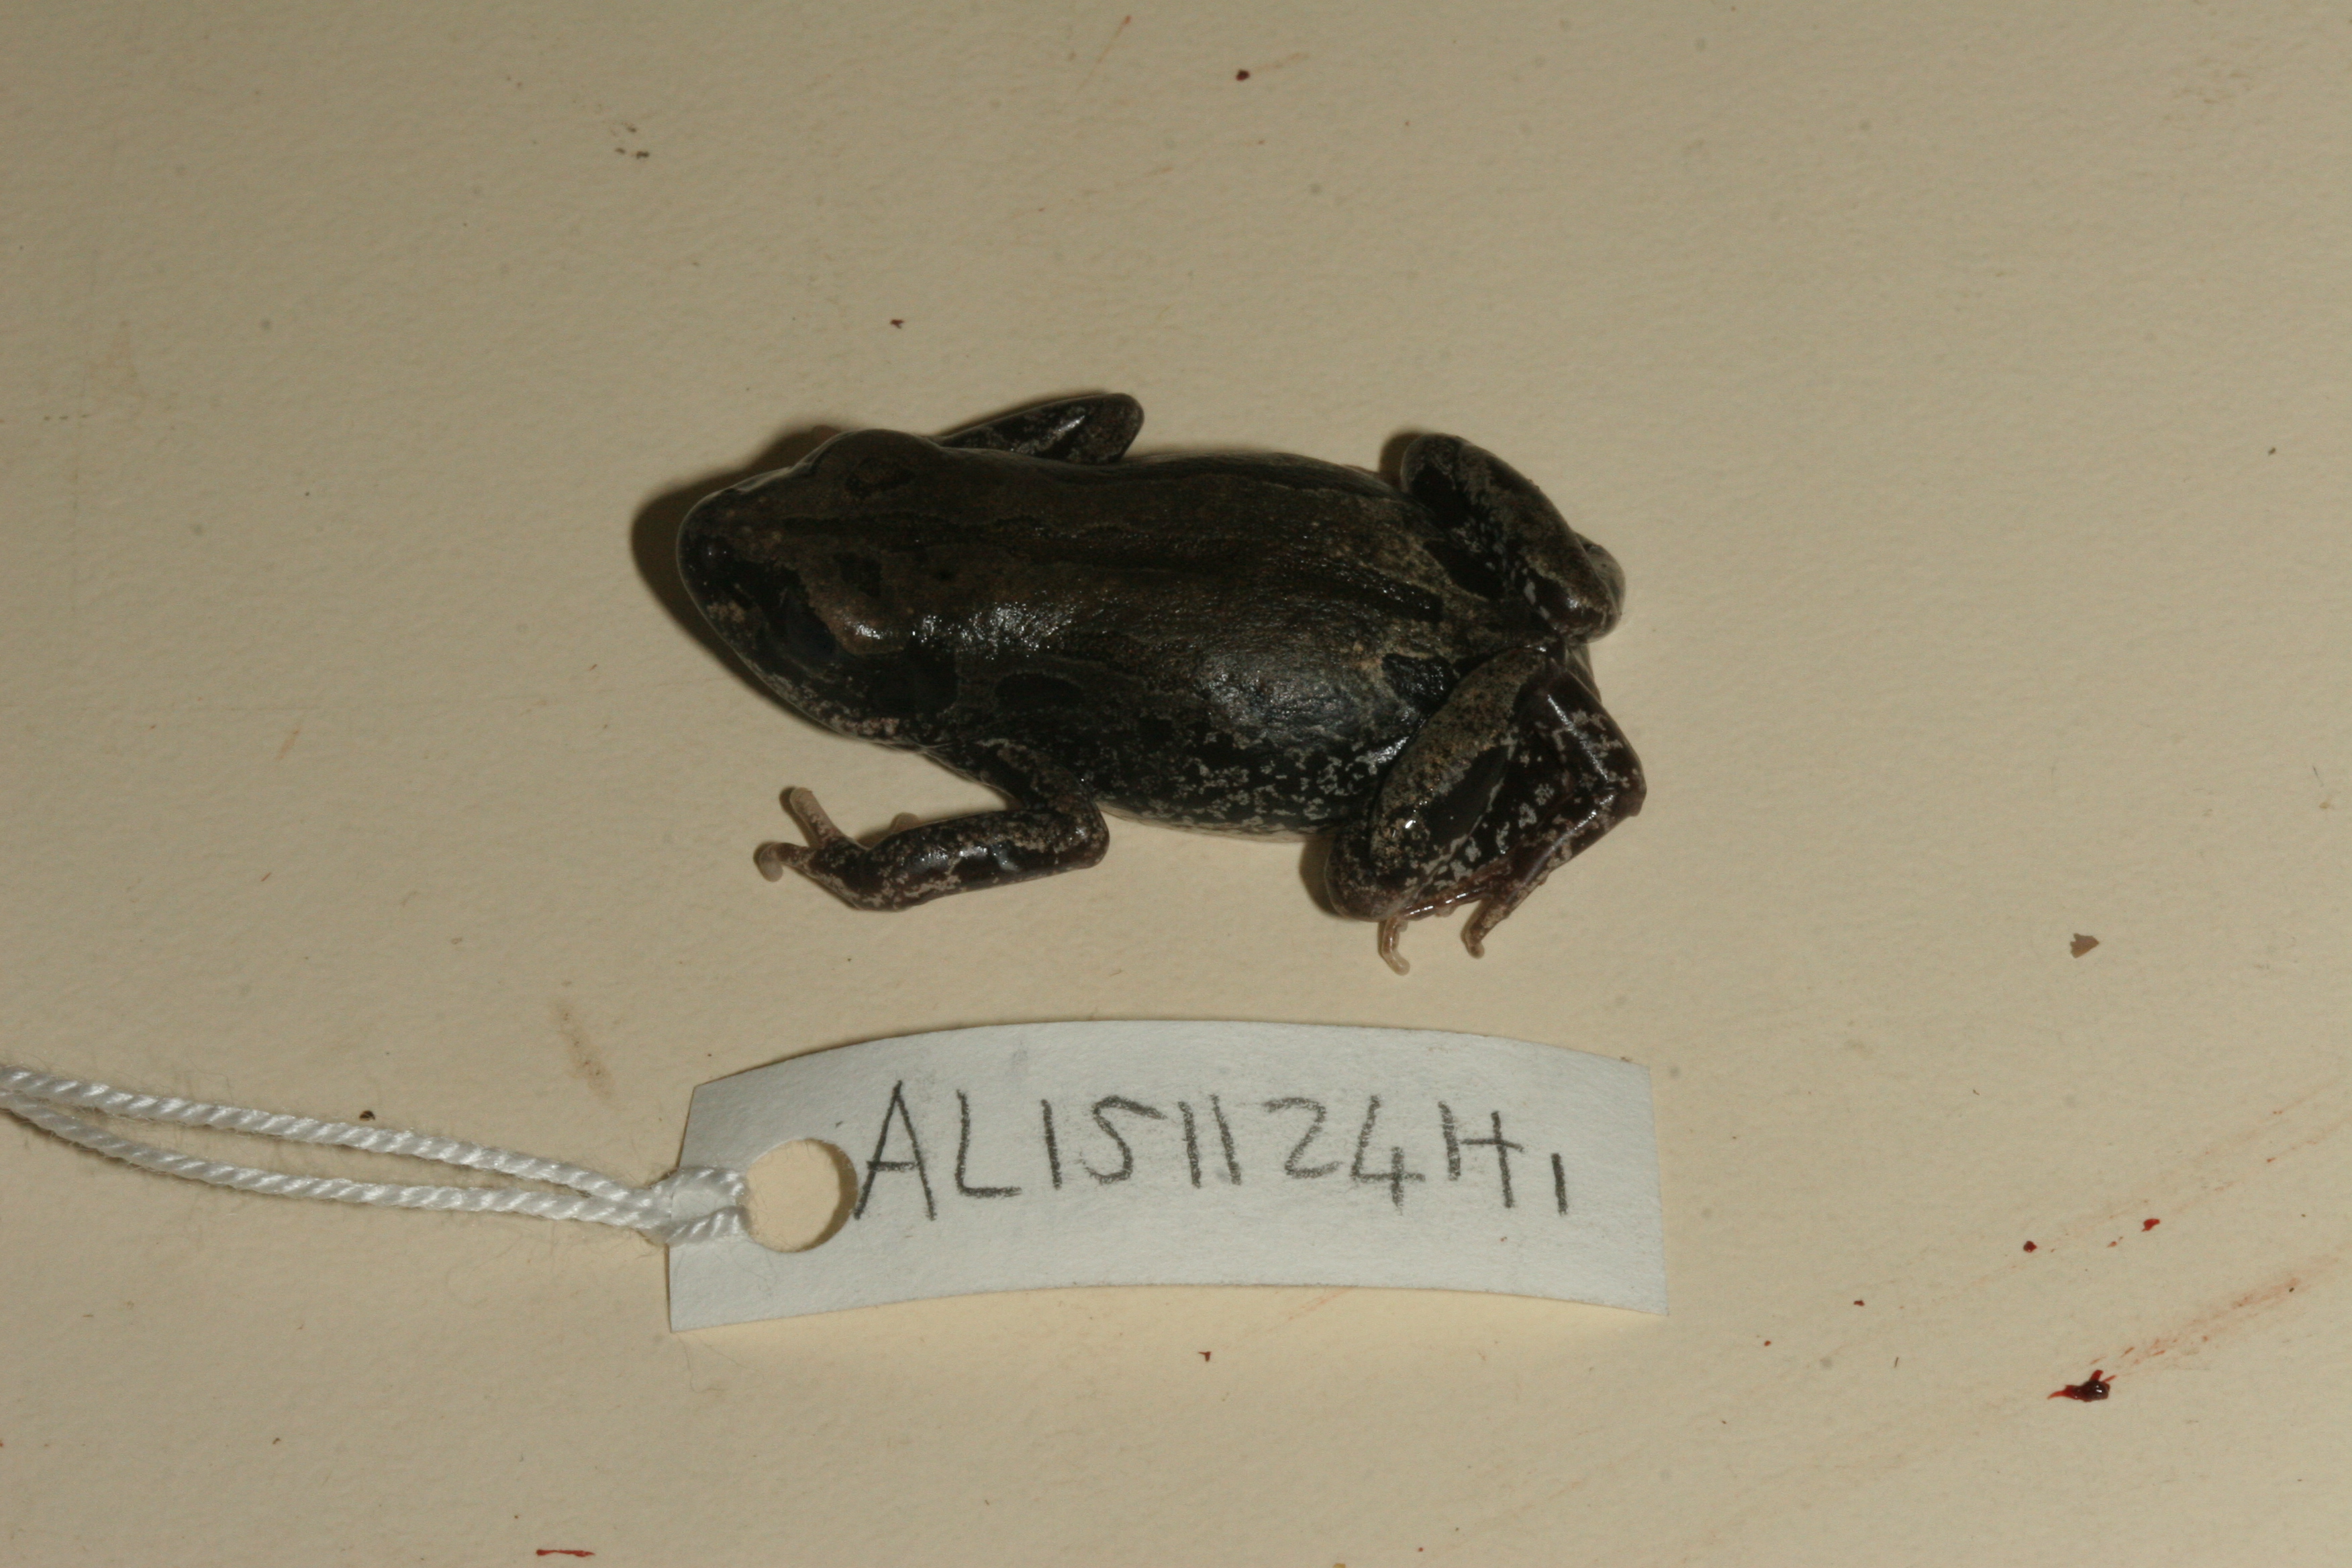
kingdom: Animalia
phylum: Chordata
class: Amphibia
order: Anura
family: Hyperoliidae
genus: Kassina
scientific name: Kassina senegalensis
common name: Senegal land frog
